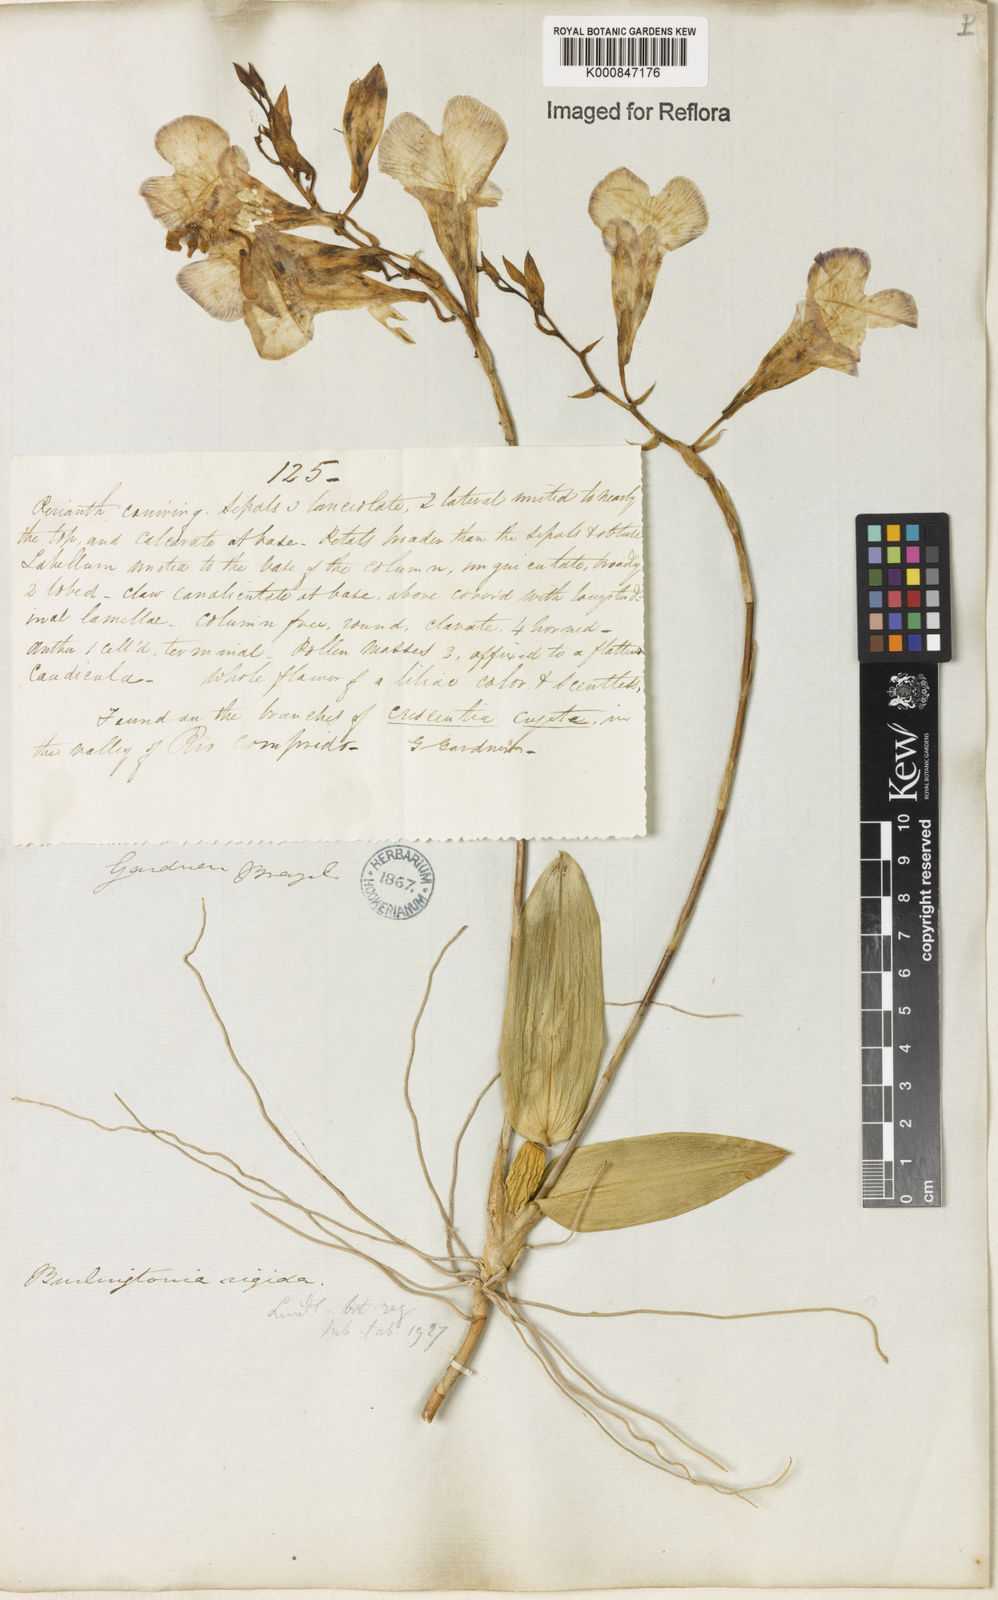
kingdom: Plantae
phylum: Tracheophyta
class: Liliopsida
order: Asparagales
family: Orchidaceae
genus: Rodriguezia
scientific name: Rodriguezia rigida
